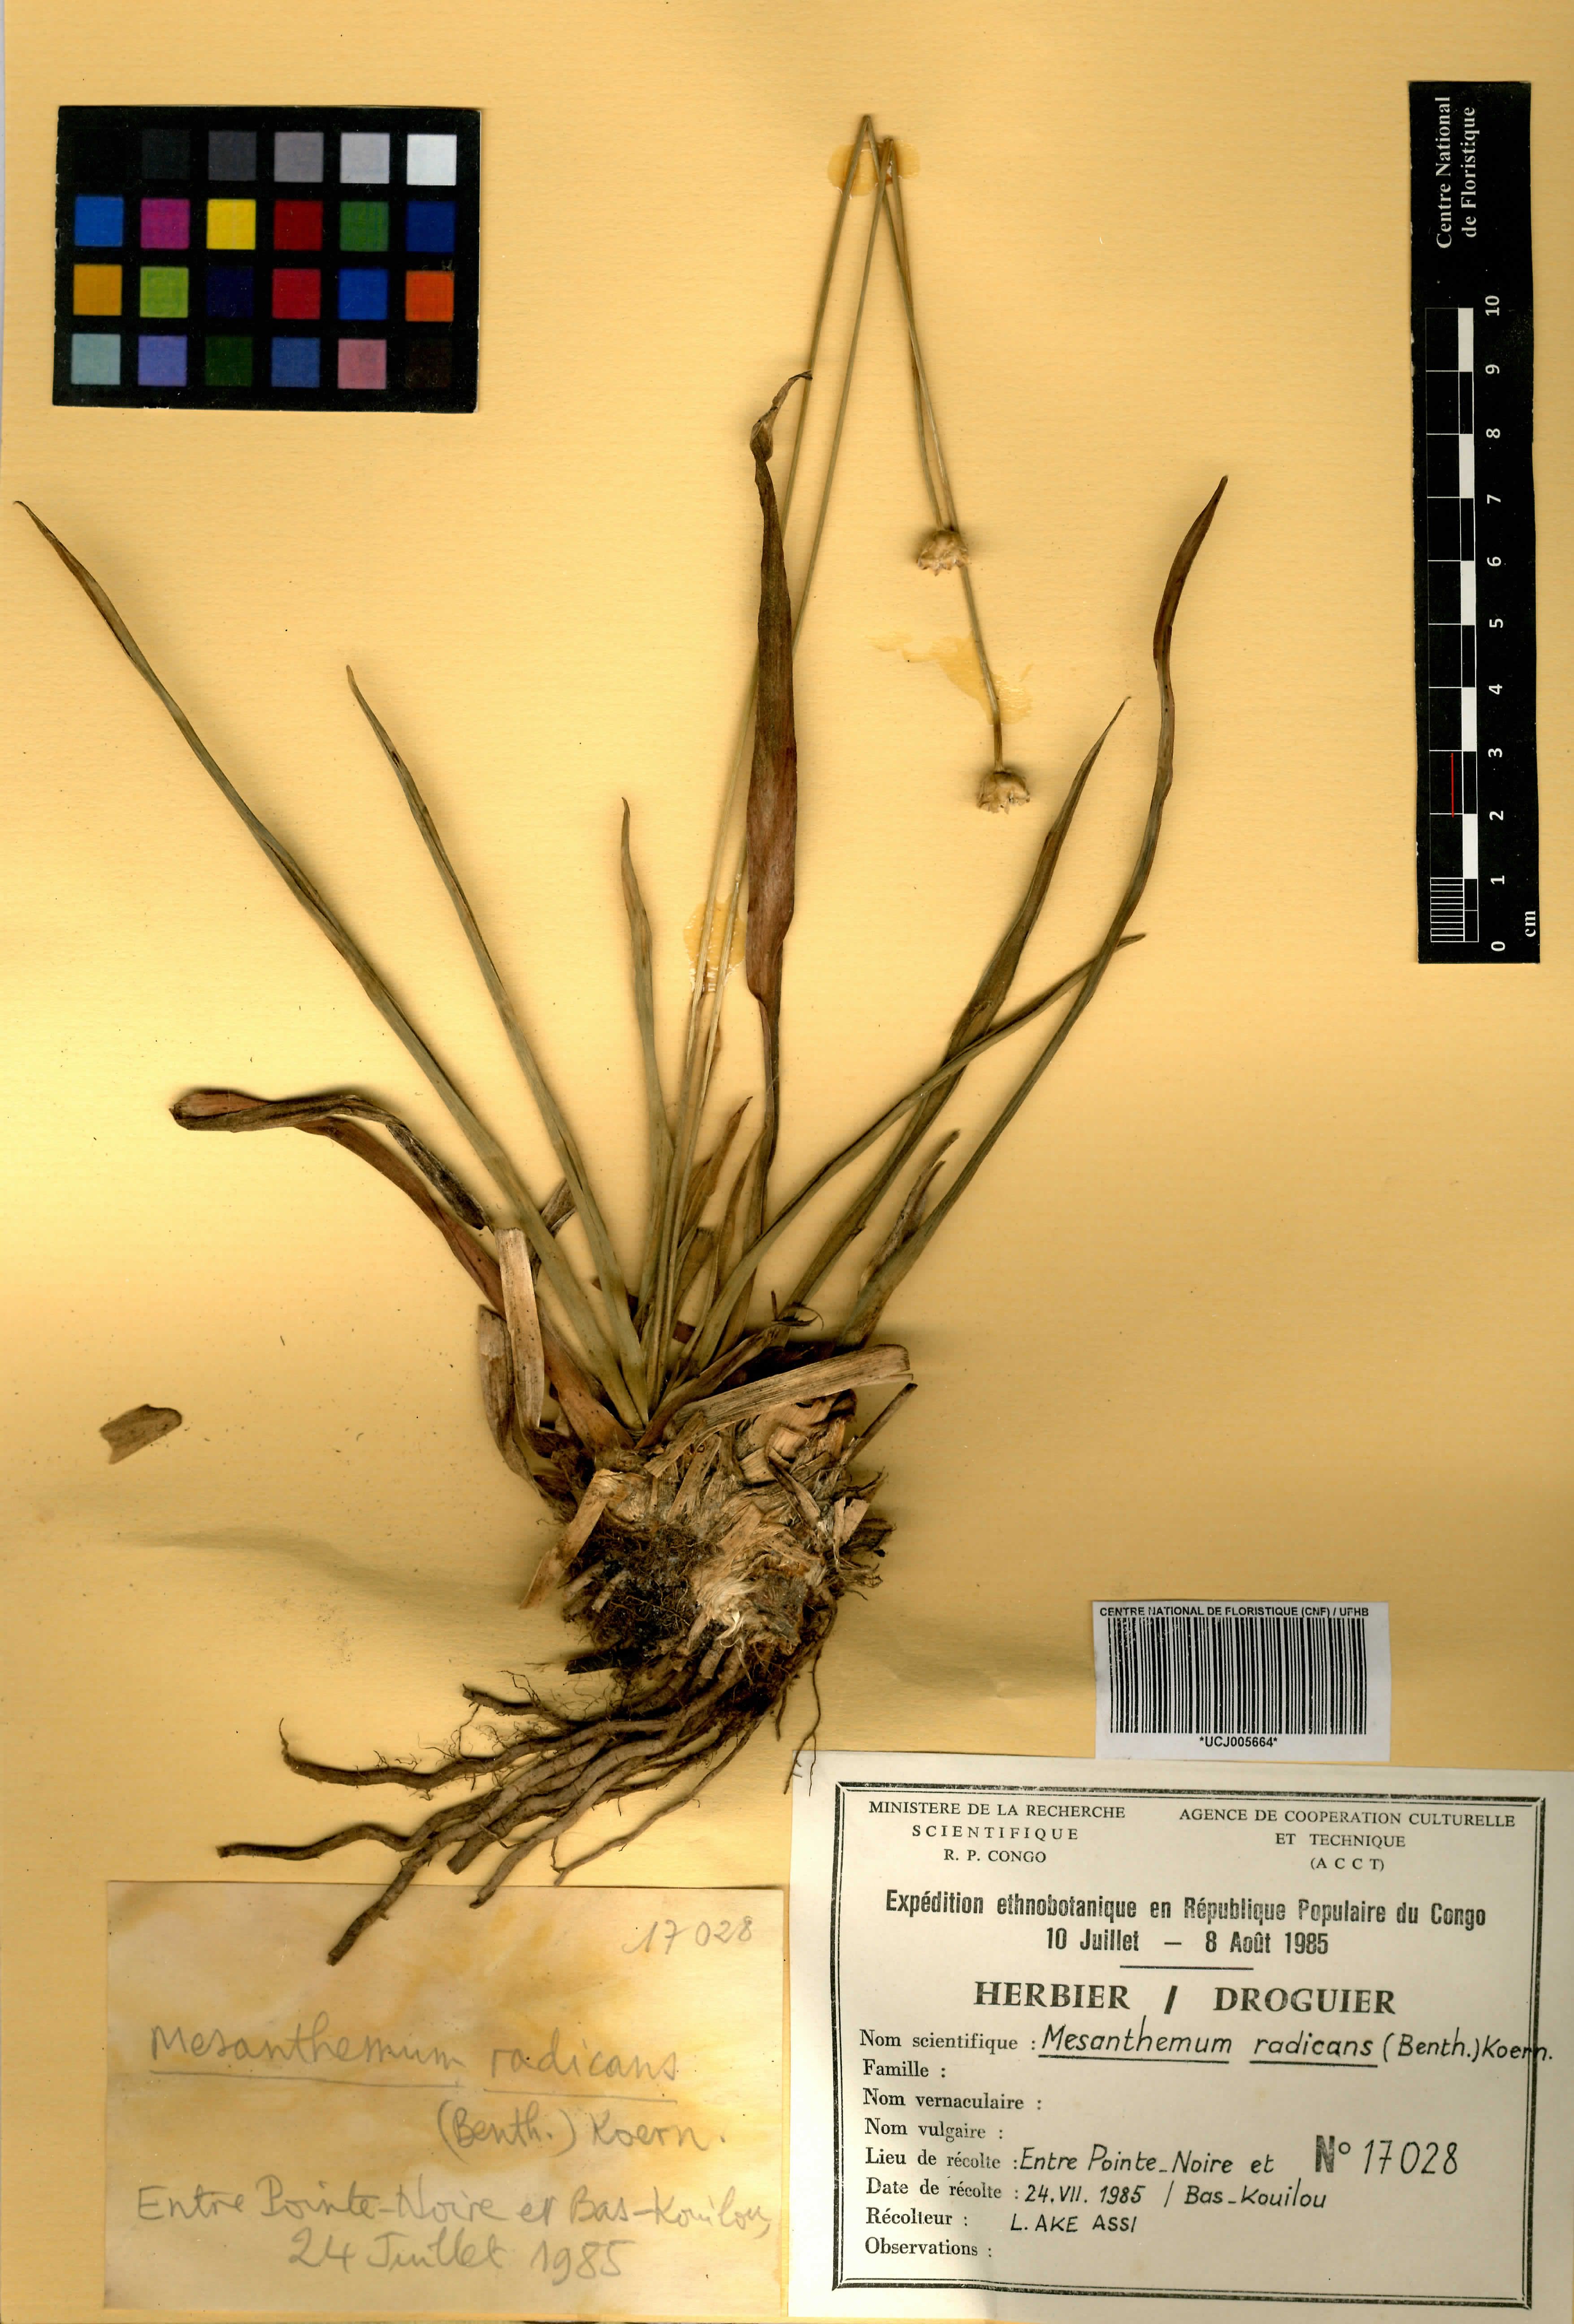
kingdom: Plantae
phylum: Tracheophyta
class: Liliopsida
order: Poales
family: Eriocaulaceae
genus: Mesanthemum
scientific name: Mesanthemum radicans
